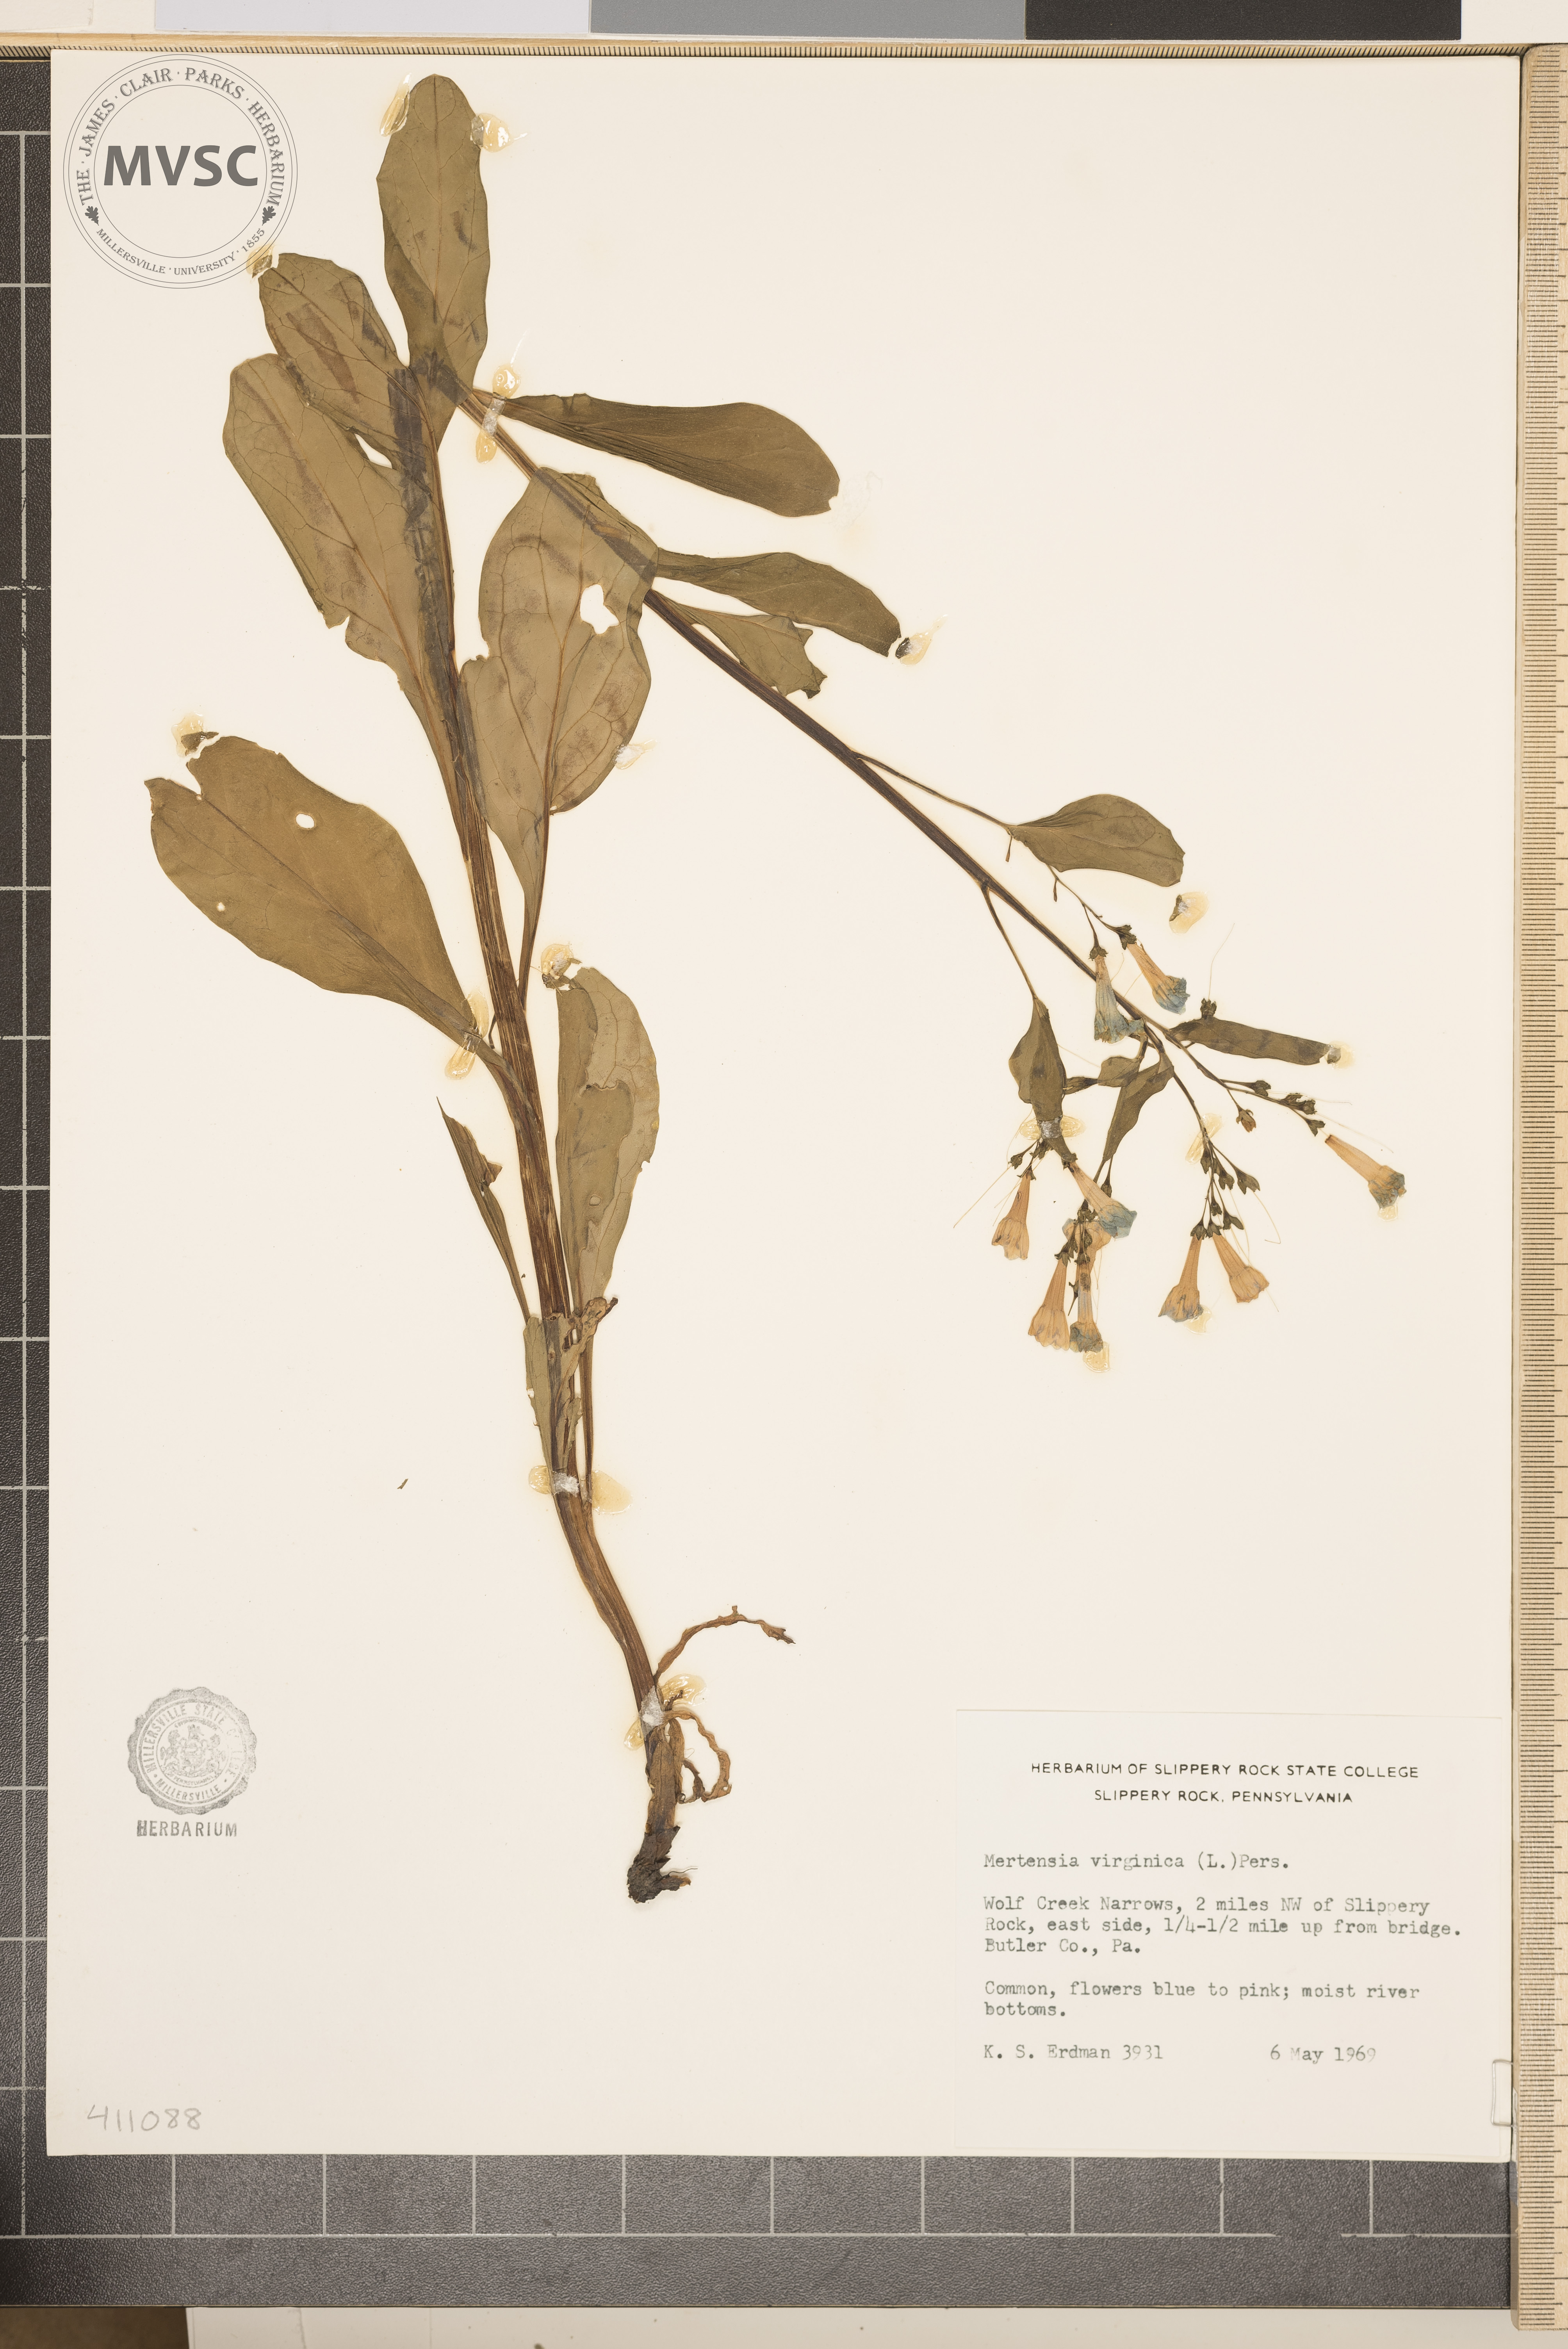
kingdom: Plantae
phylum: Tracheophyta
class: Magnoliopsida
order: Boraginales
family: Boraginaceae
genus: Mertensia
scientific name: Mertensia virginica
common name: Virginia bluebells
